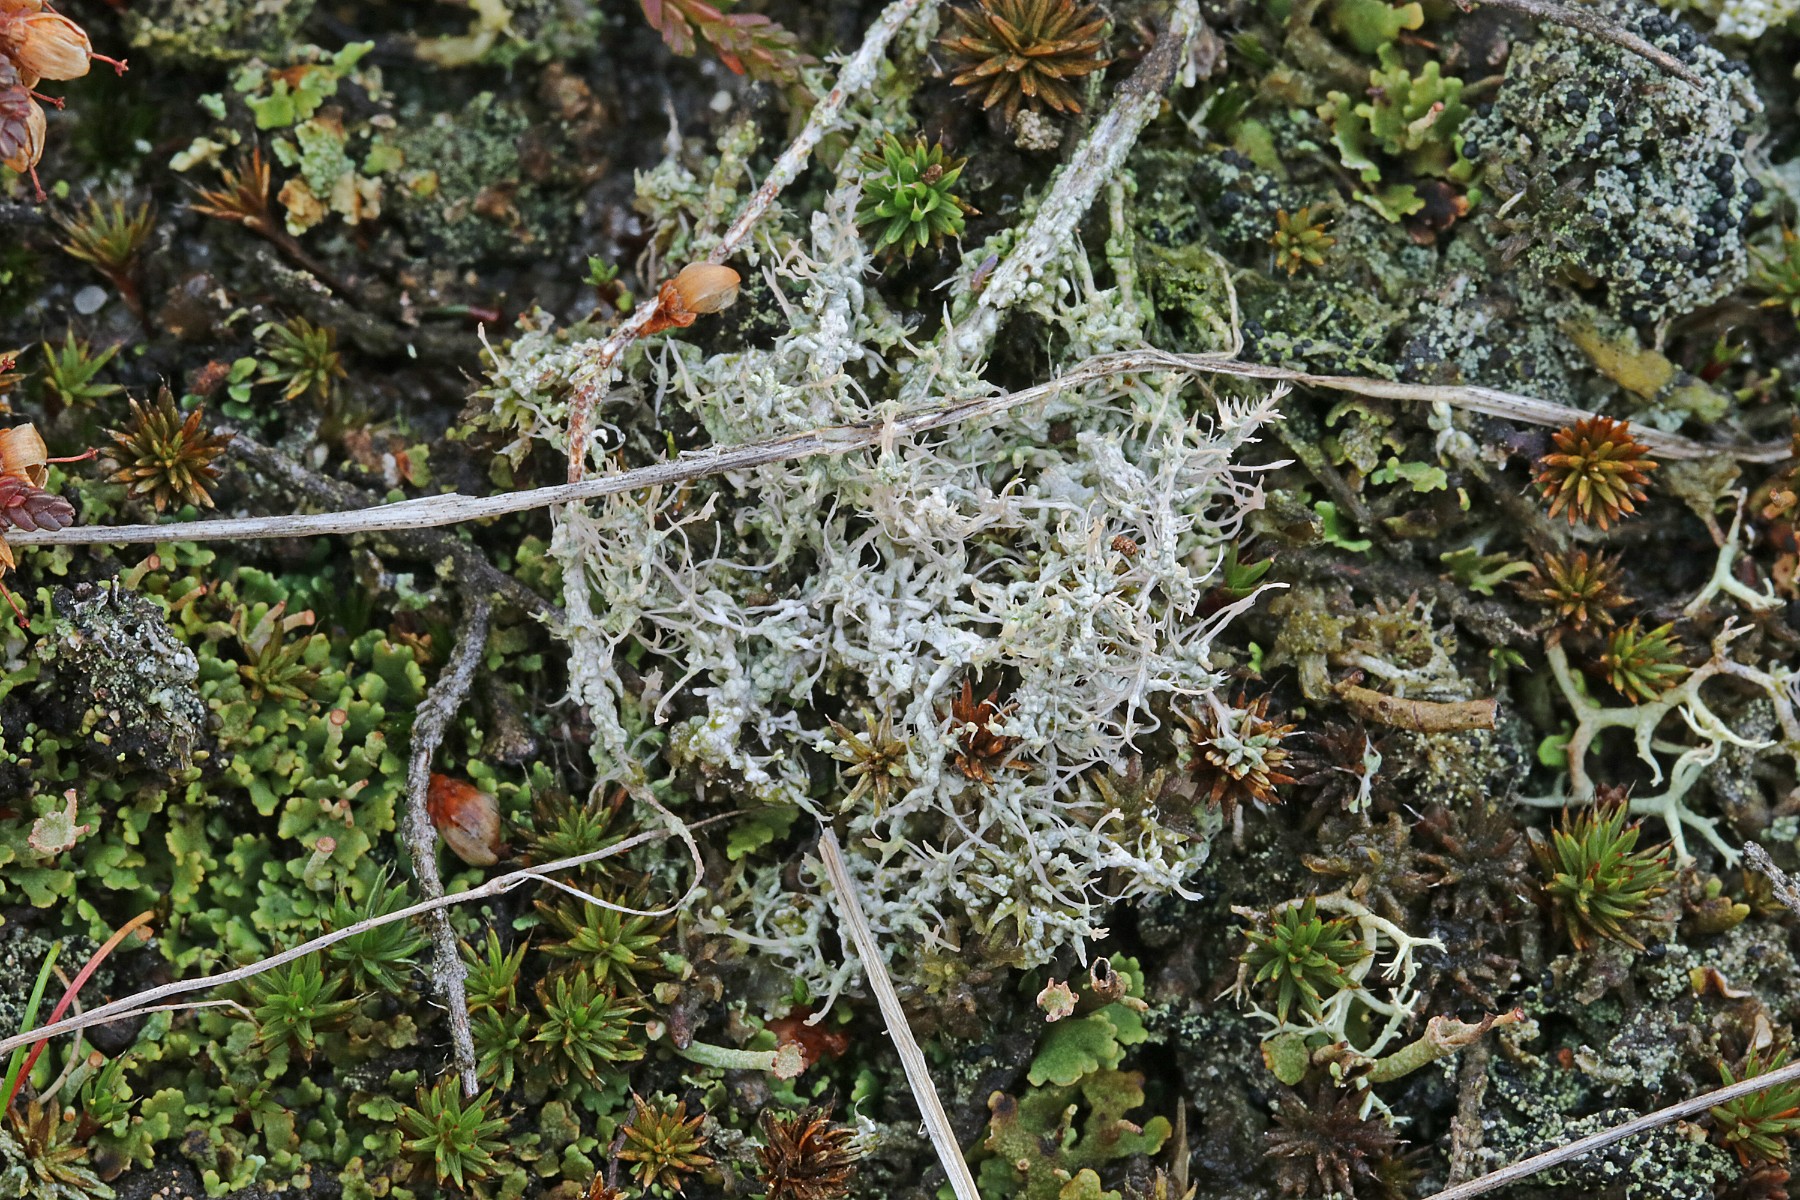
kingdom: Fungi
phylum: Ascomycota
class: Lecanoromycetes
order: Pertusariales
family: Ochrolechiaceae
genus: Ochrolechia
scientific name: Ochrolechia frigida
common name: fjeld-blegskivelav
